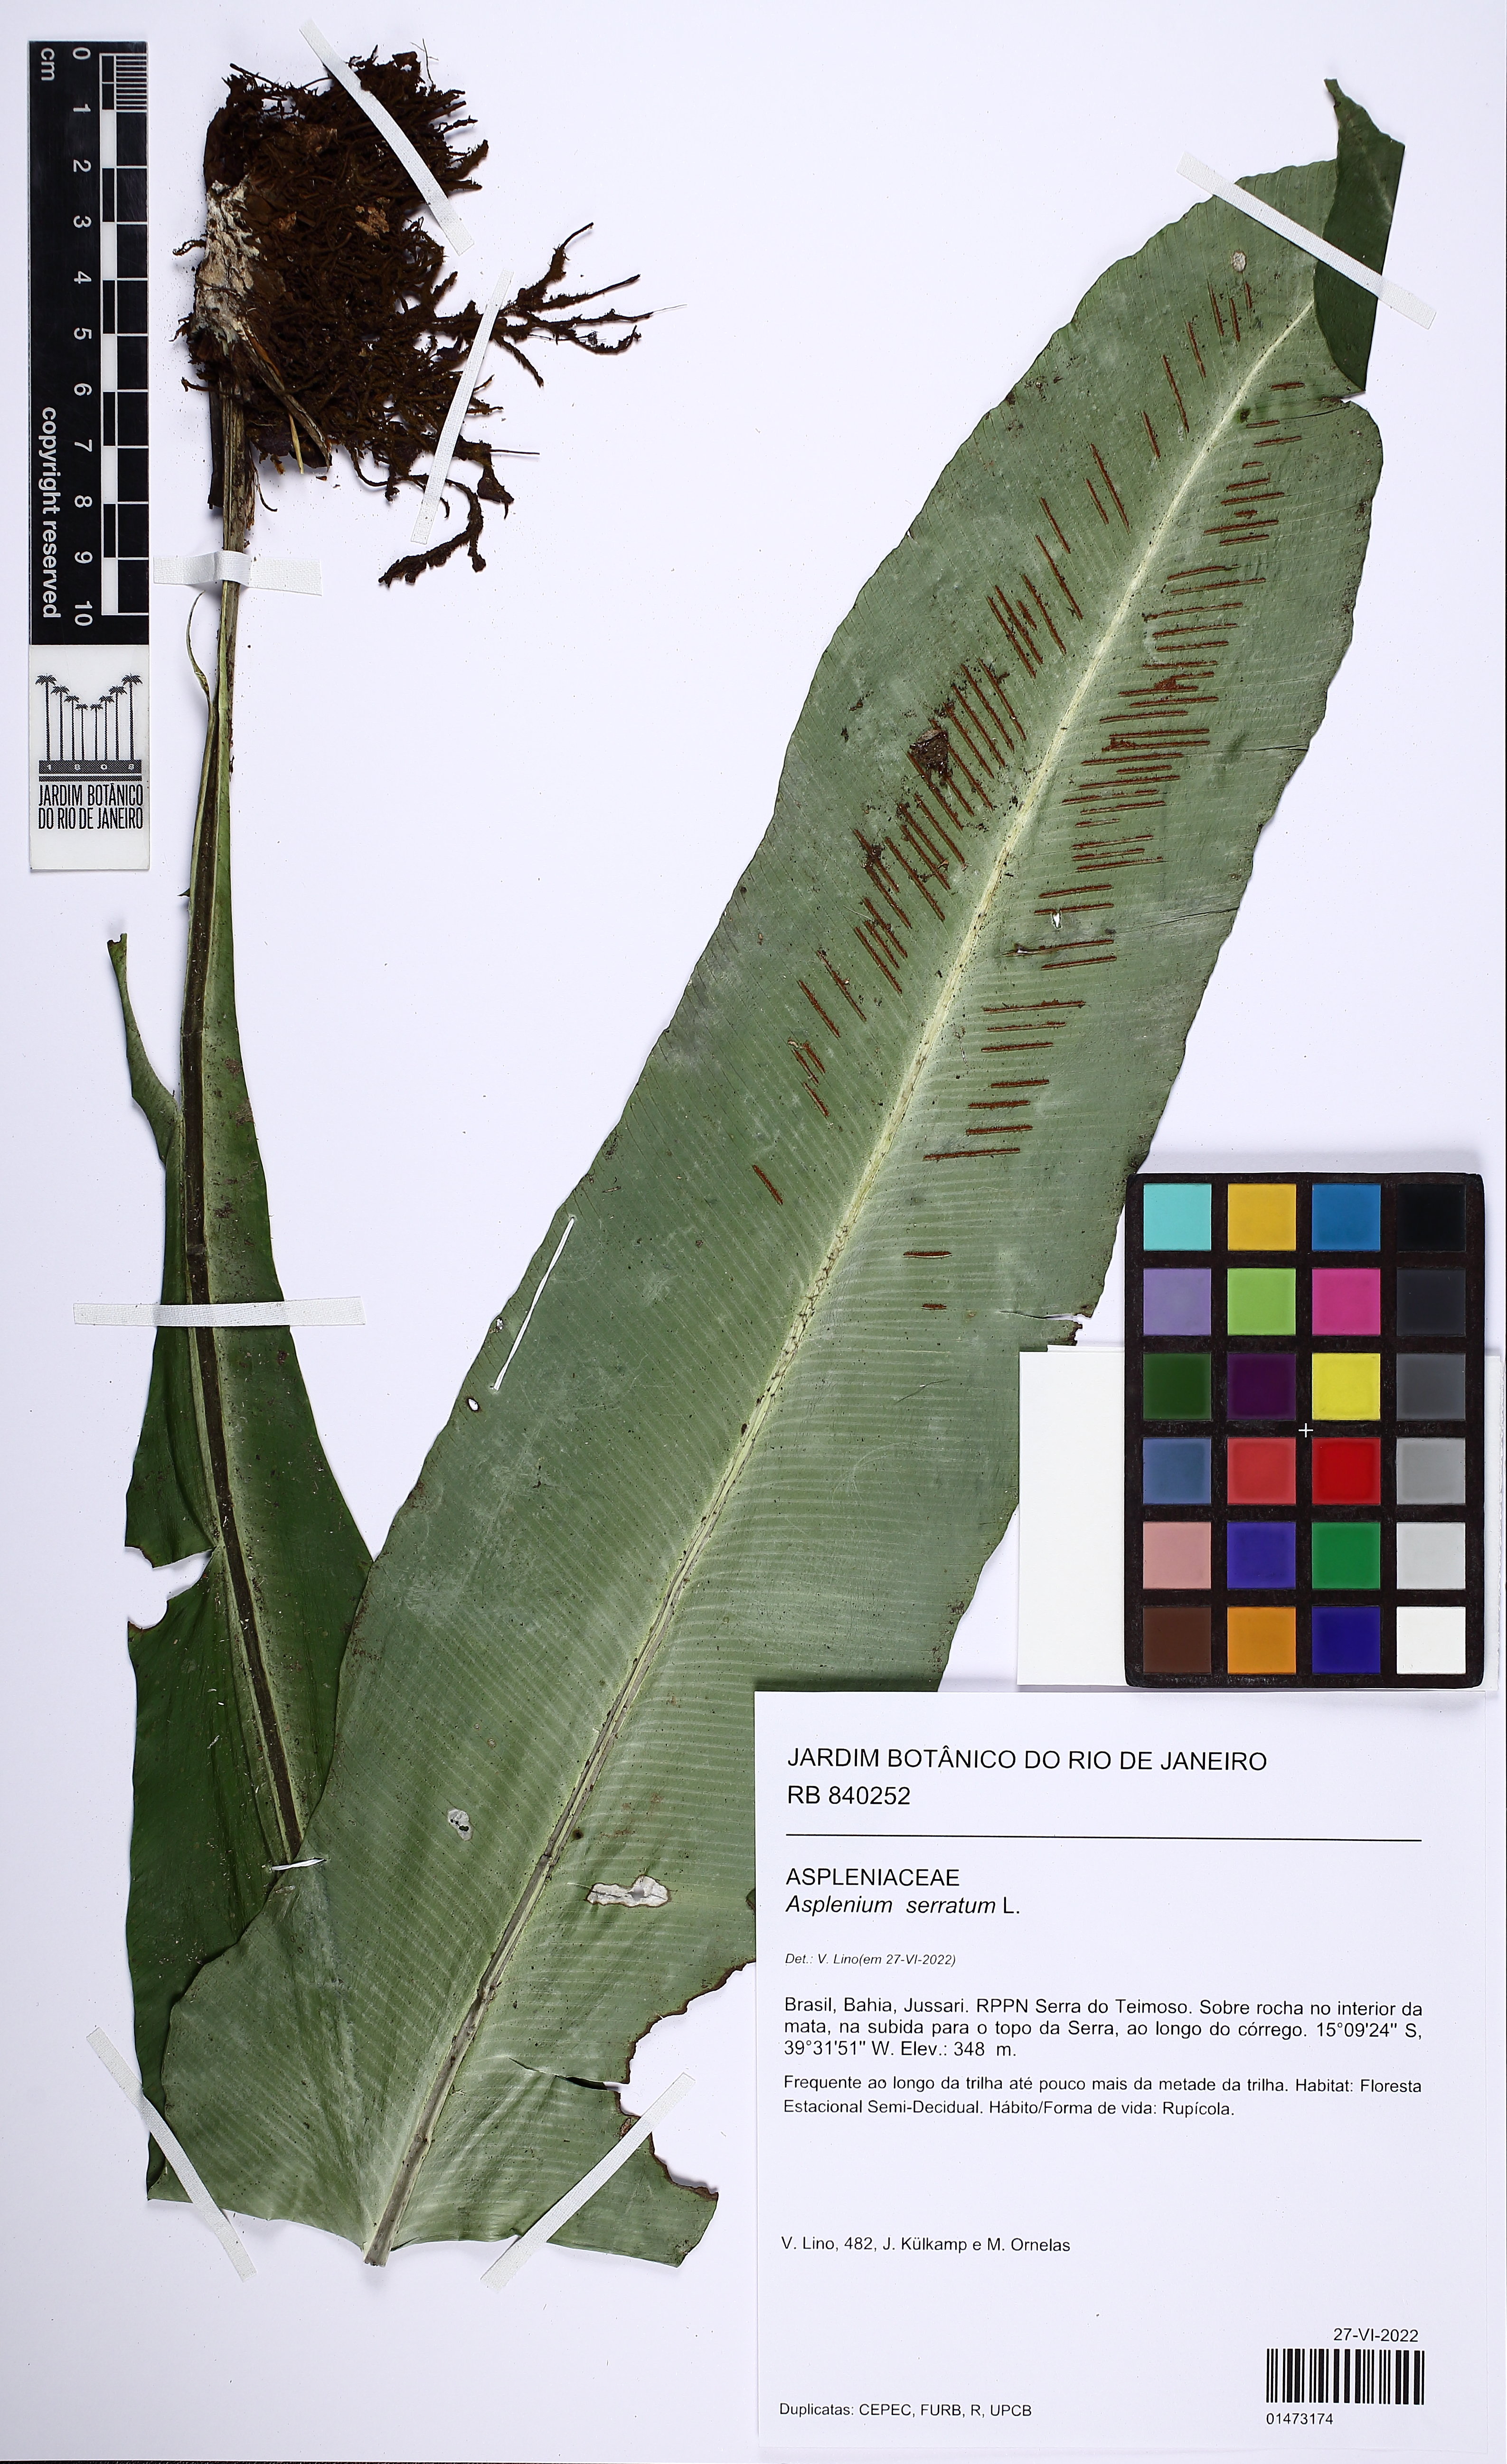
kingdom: Plantae
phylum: Tracheophyta
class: Polypodiopsida
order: Polypodiales
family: Aspleniaceae
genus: Asplenium
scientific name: Asplenium serratum
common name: Wild birdnest fern
